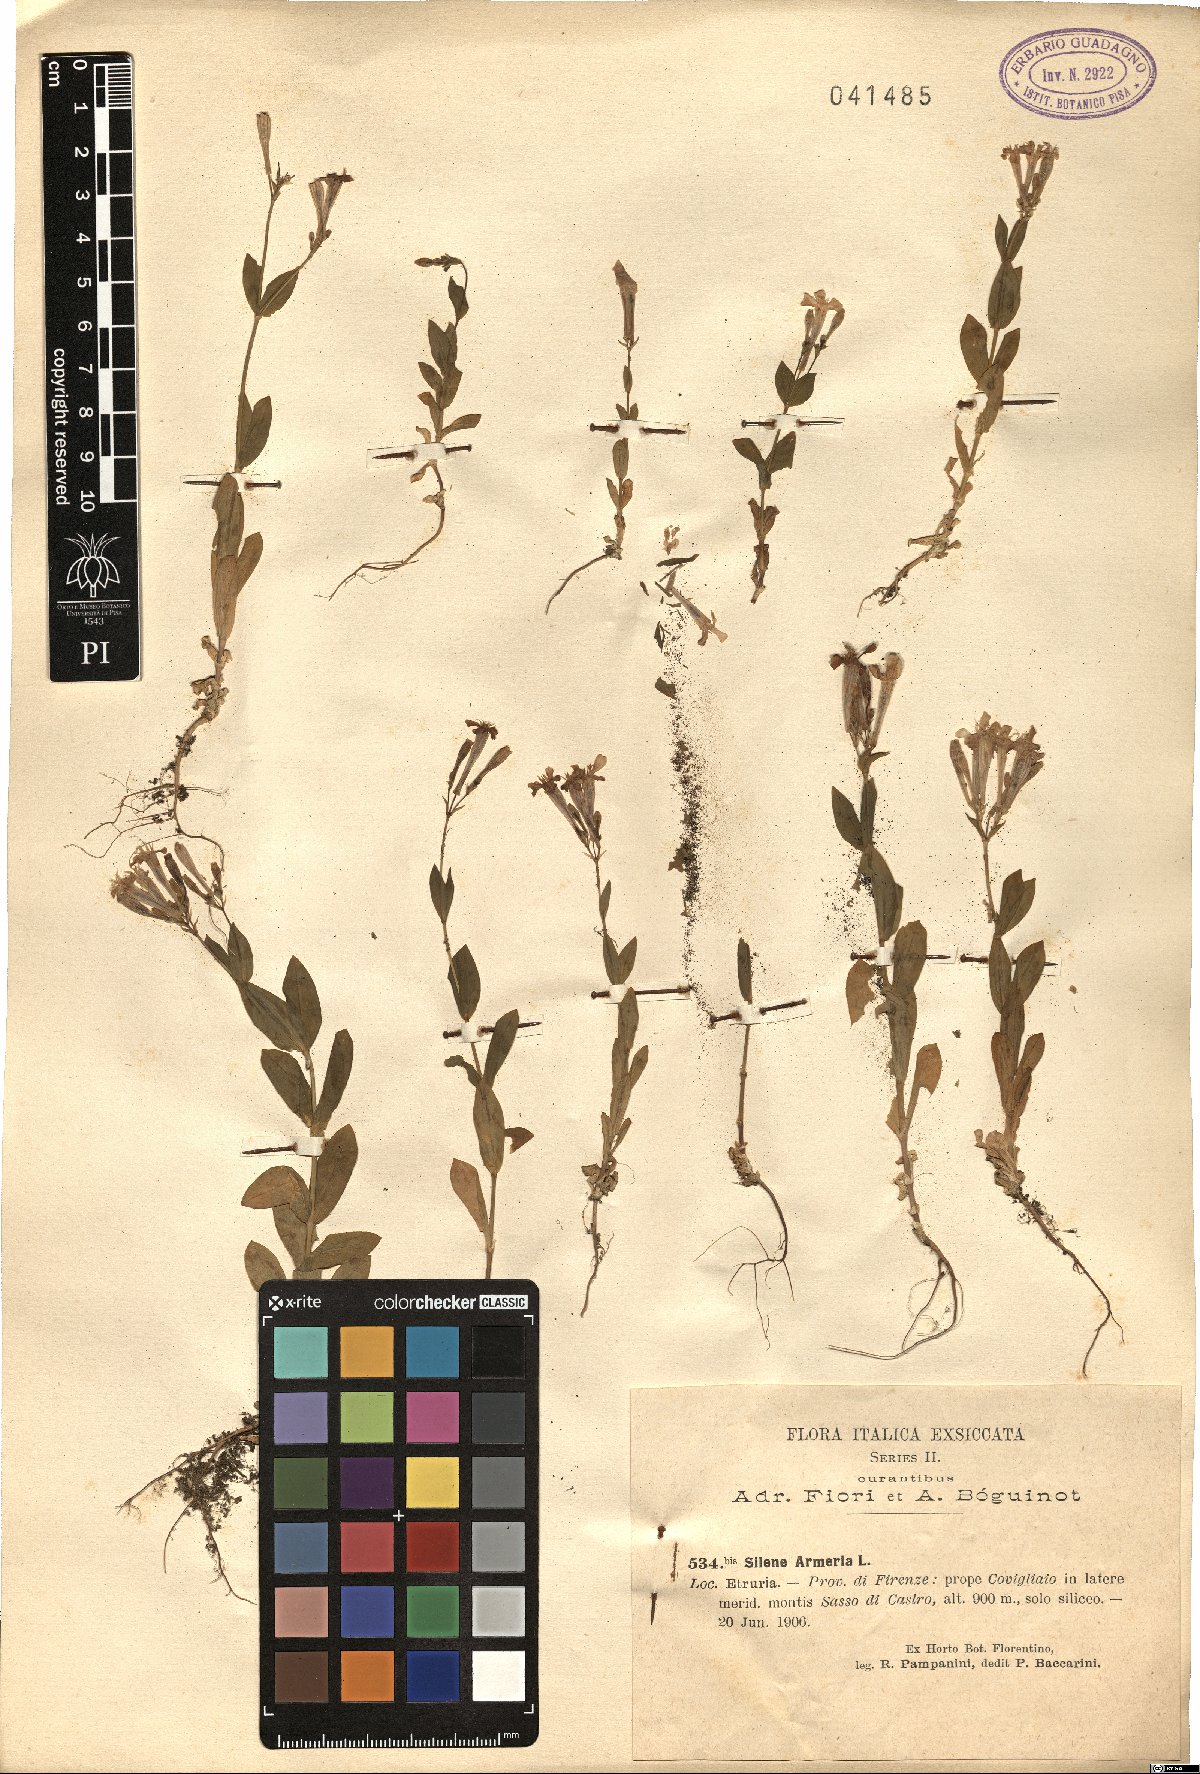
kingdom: Plantae
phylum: Tracheophyta
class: Magnoliopsida
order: Caryophyllales
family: Caryophyllaceae
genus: Atocion
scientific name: Atocion armeria
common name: Sweet william catchfly
